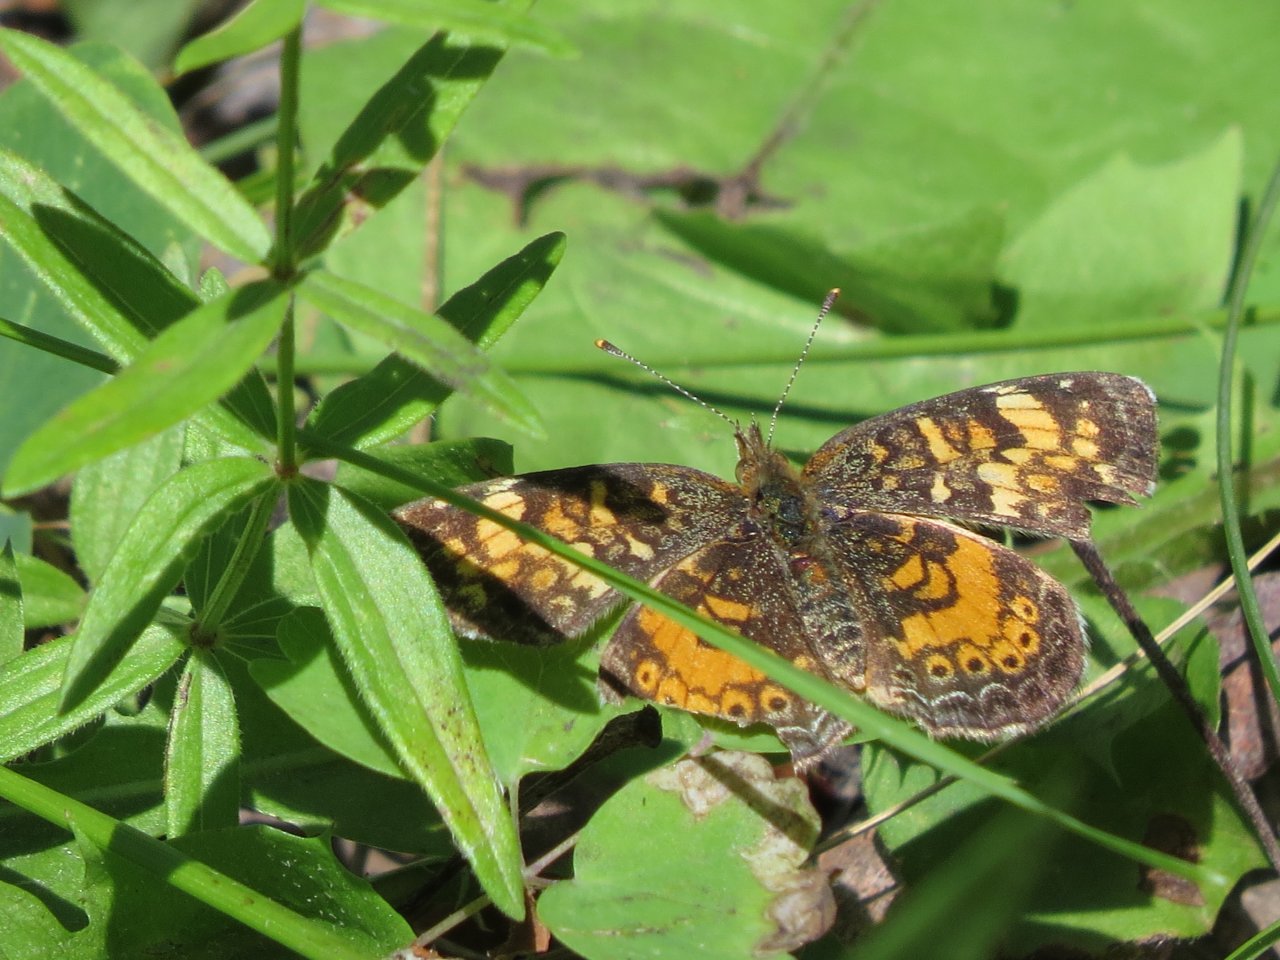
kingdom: Animalia
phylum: Arthropoda
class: Insecta
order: Lepidoptera
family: Nymphalidae
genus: Phyciodes
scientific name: Phyciodes tharos
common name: Northern Crescent
